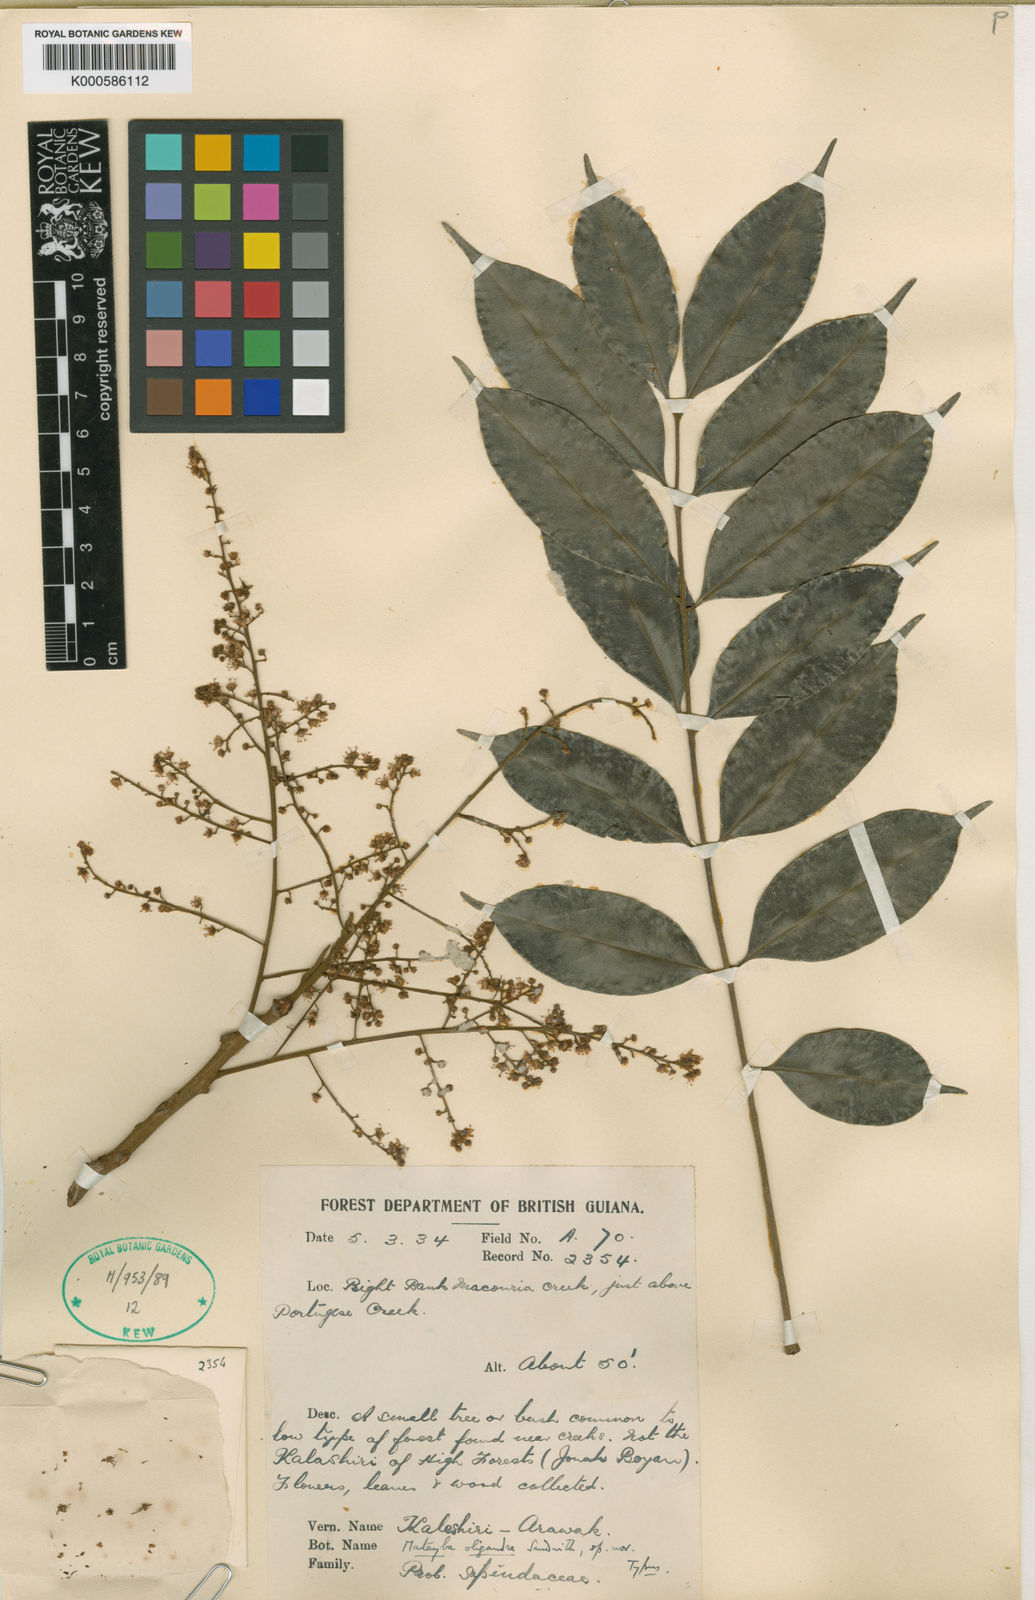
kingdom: Plantae
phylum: Tracheophyta
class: Magnoliopsida
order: Sapindales
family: Sapindaceae
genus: Matayba
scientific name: Matayba peruviana
